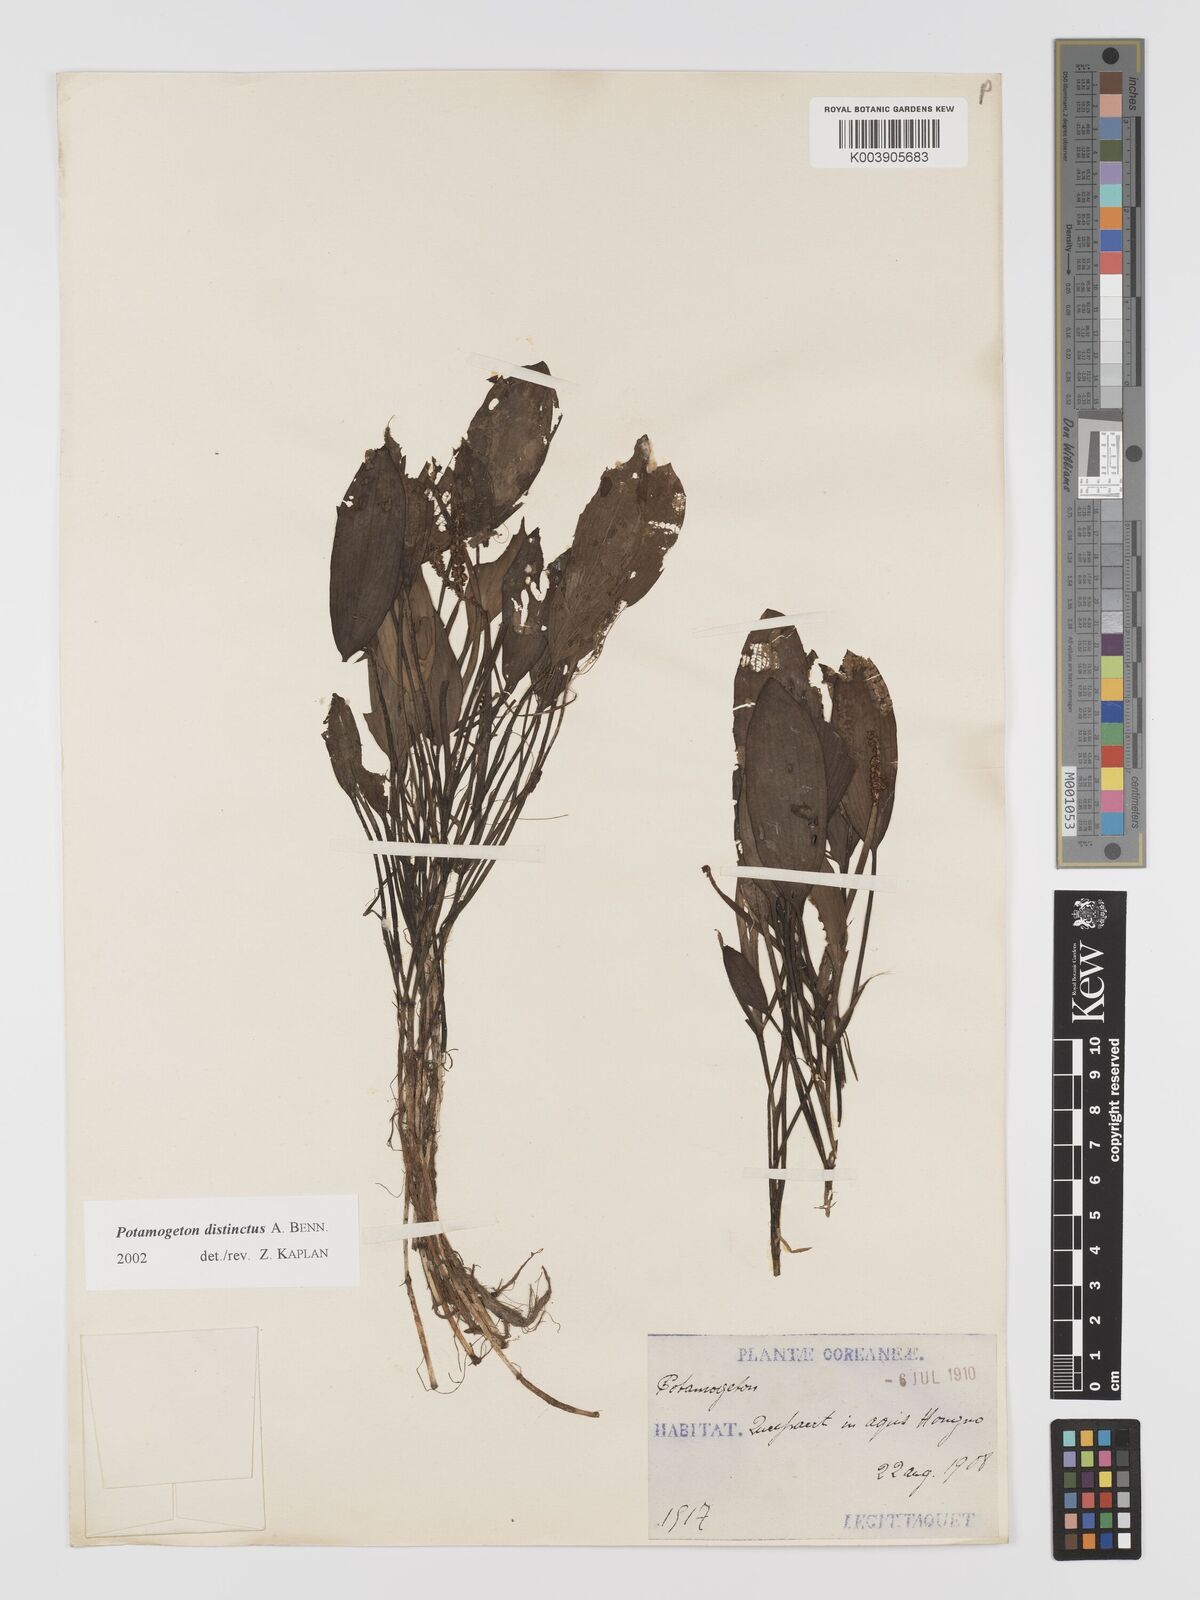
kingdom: Plantae
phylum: Tracheophyta
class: Liliopsida
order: Alismatales
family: Potamogetonaceae
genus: Potamogeton
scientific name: Potamogeton distinctus
